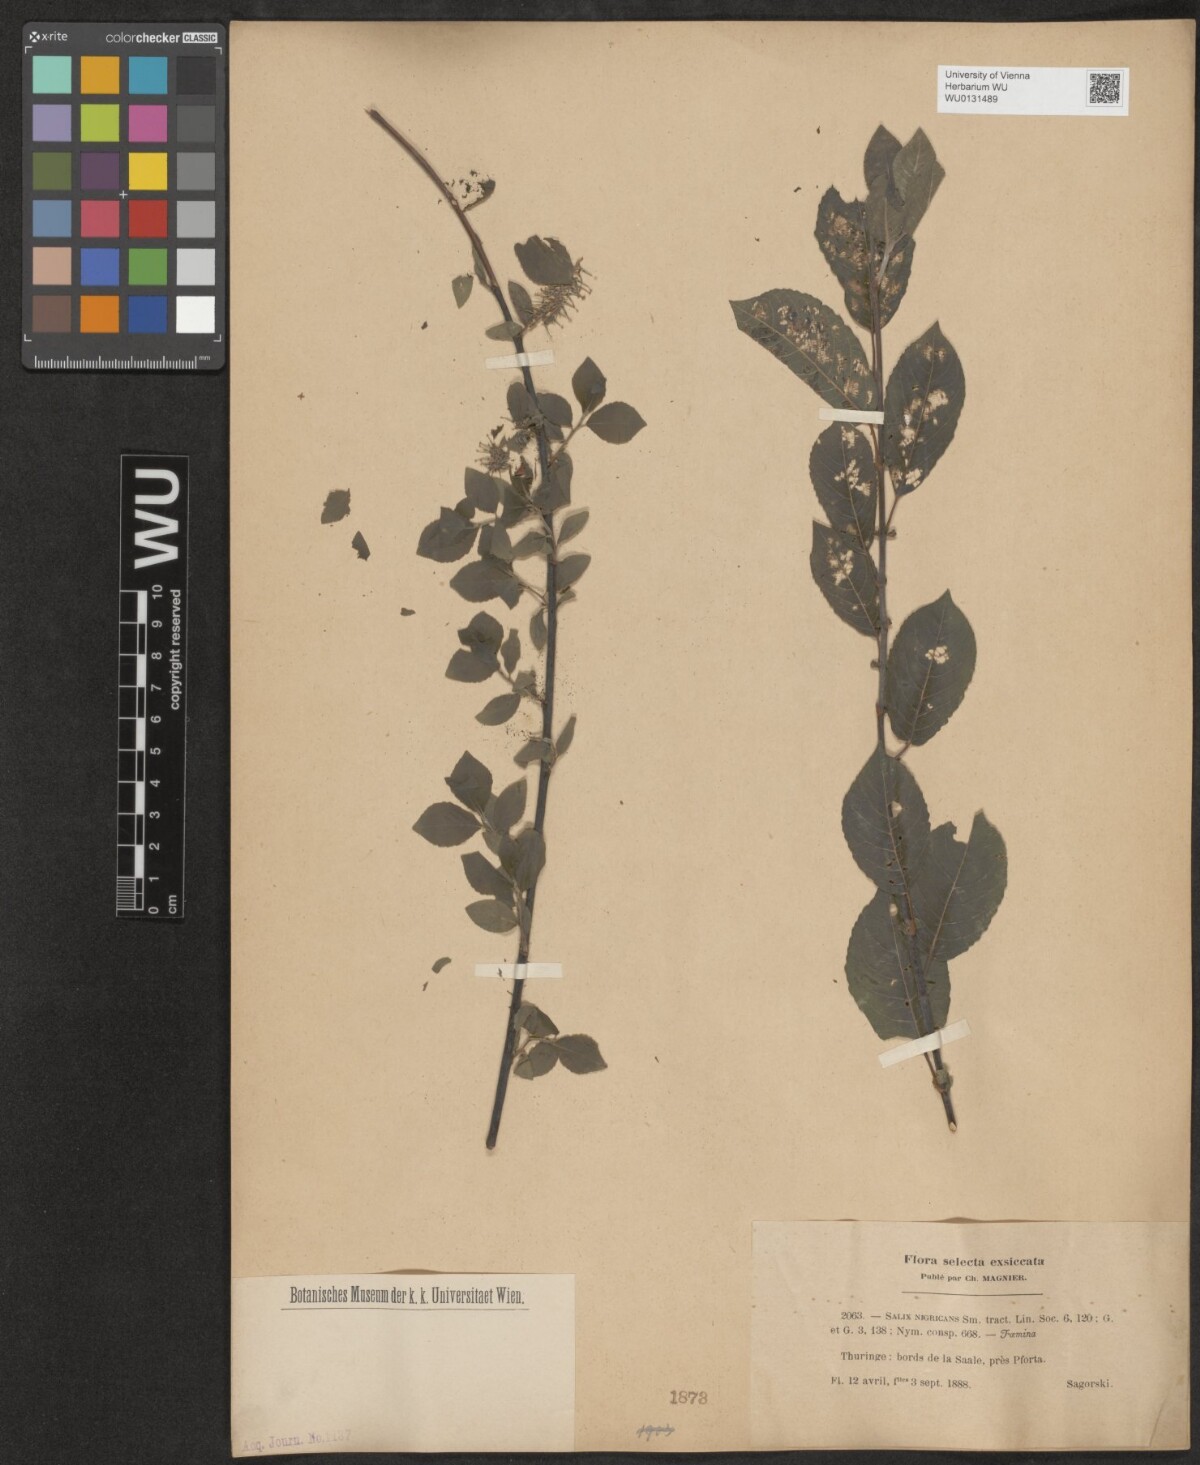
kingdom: Plantae
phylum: Tracheophyta
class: Magnoliopsida
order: Malpighiales
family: Salicaceae
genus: Salix
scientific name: Salix myrsinifolia
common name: Dark-leaved willow
